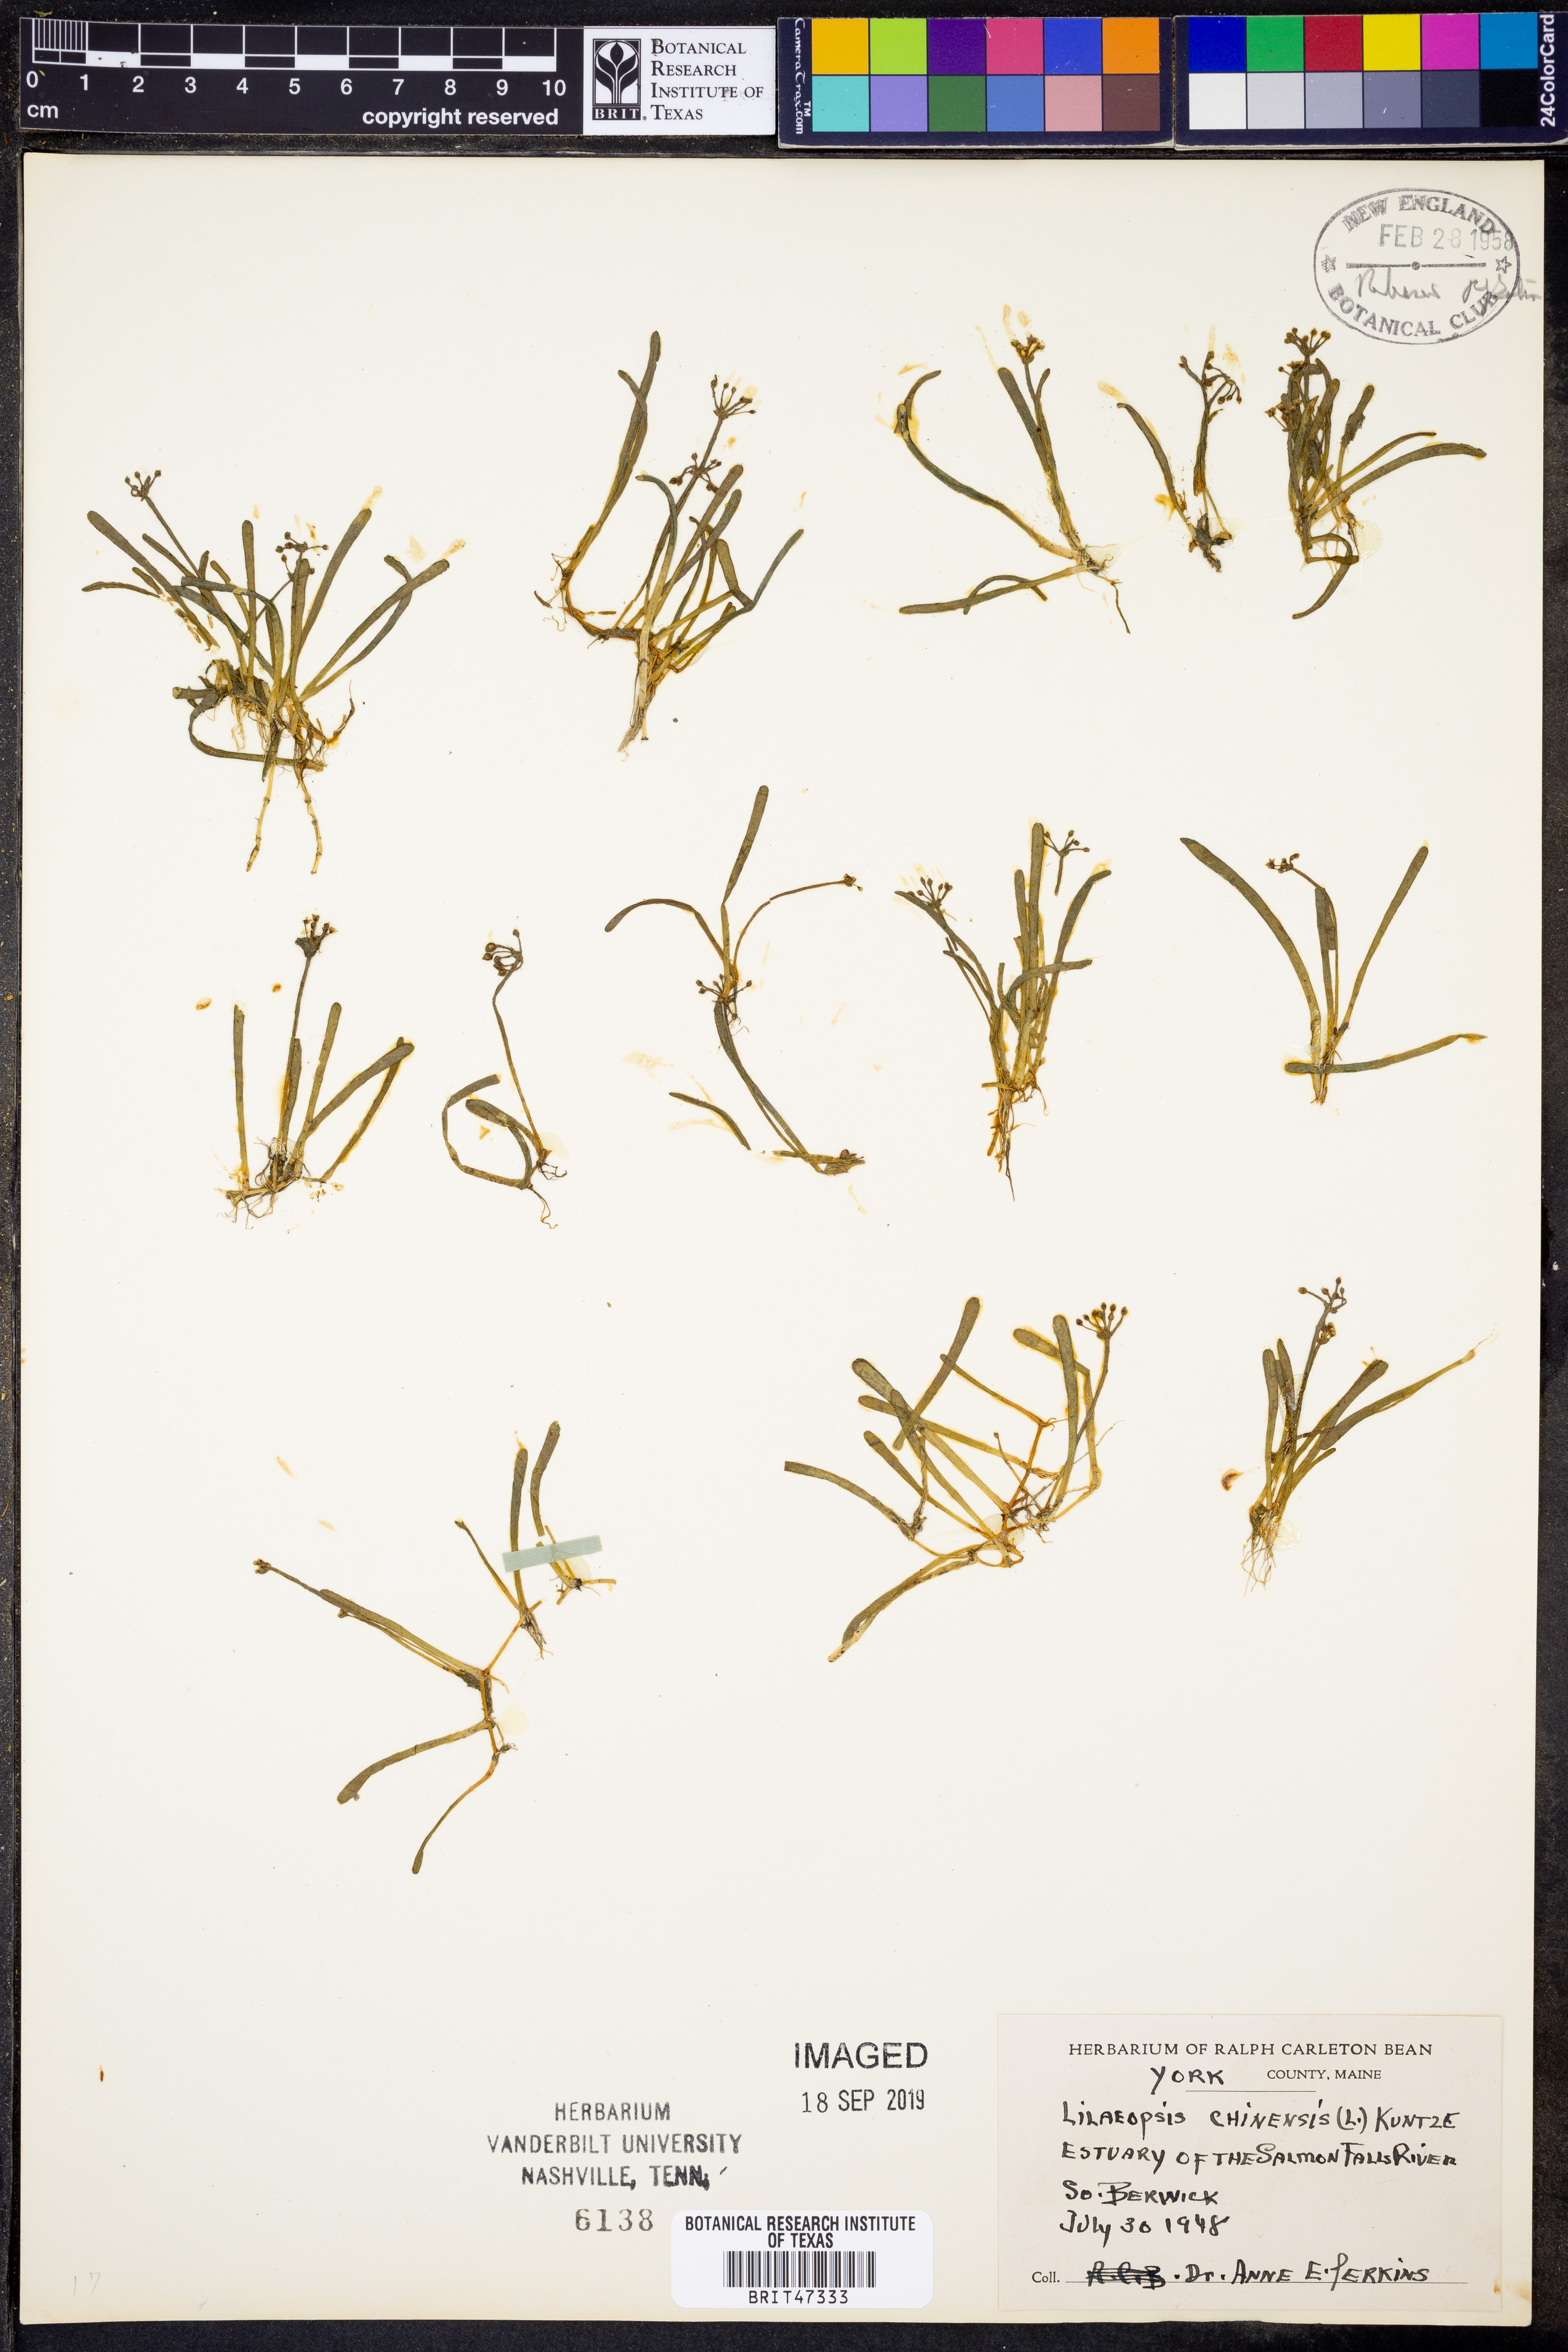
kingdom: Plantae
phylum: Tracheophyta
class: Magnoliopsida
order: Apiales
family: Apiaceae
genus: Lilaeopsis
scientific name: Lilaeopsis chinensis
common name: Eastern grasswort
